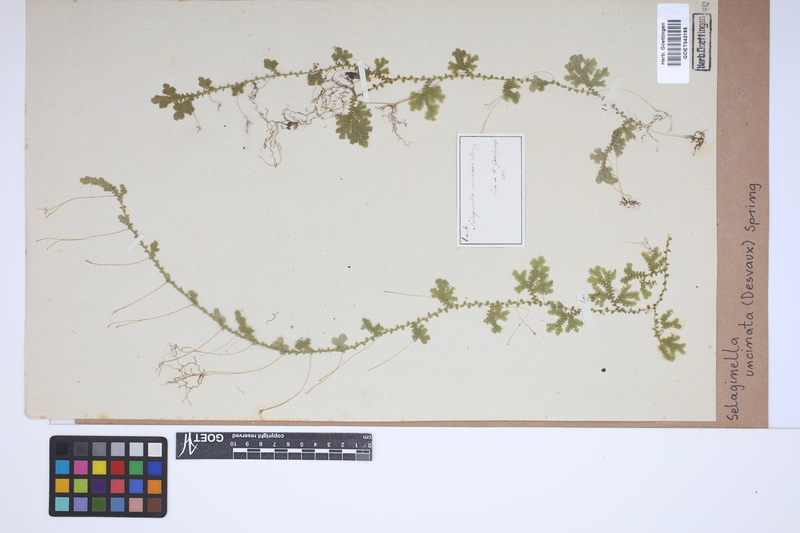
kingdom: Plantae
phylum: Tracheophyta
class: Lycopodiopsida
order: Selaginellales
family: Selaginellaceae
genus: Selaginella
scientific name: Selaginella uncinata
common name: Blue spikemoss
